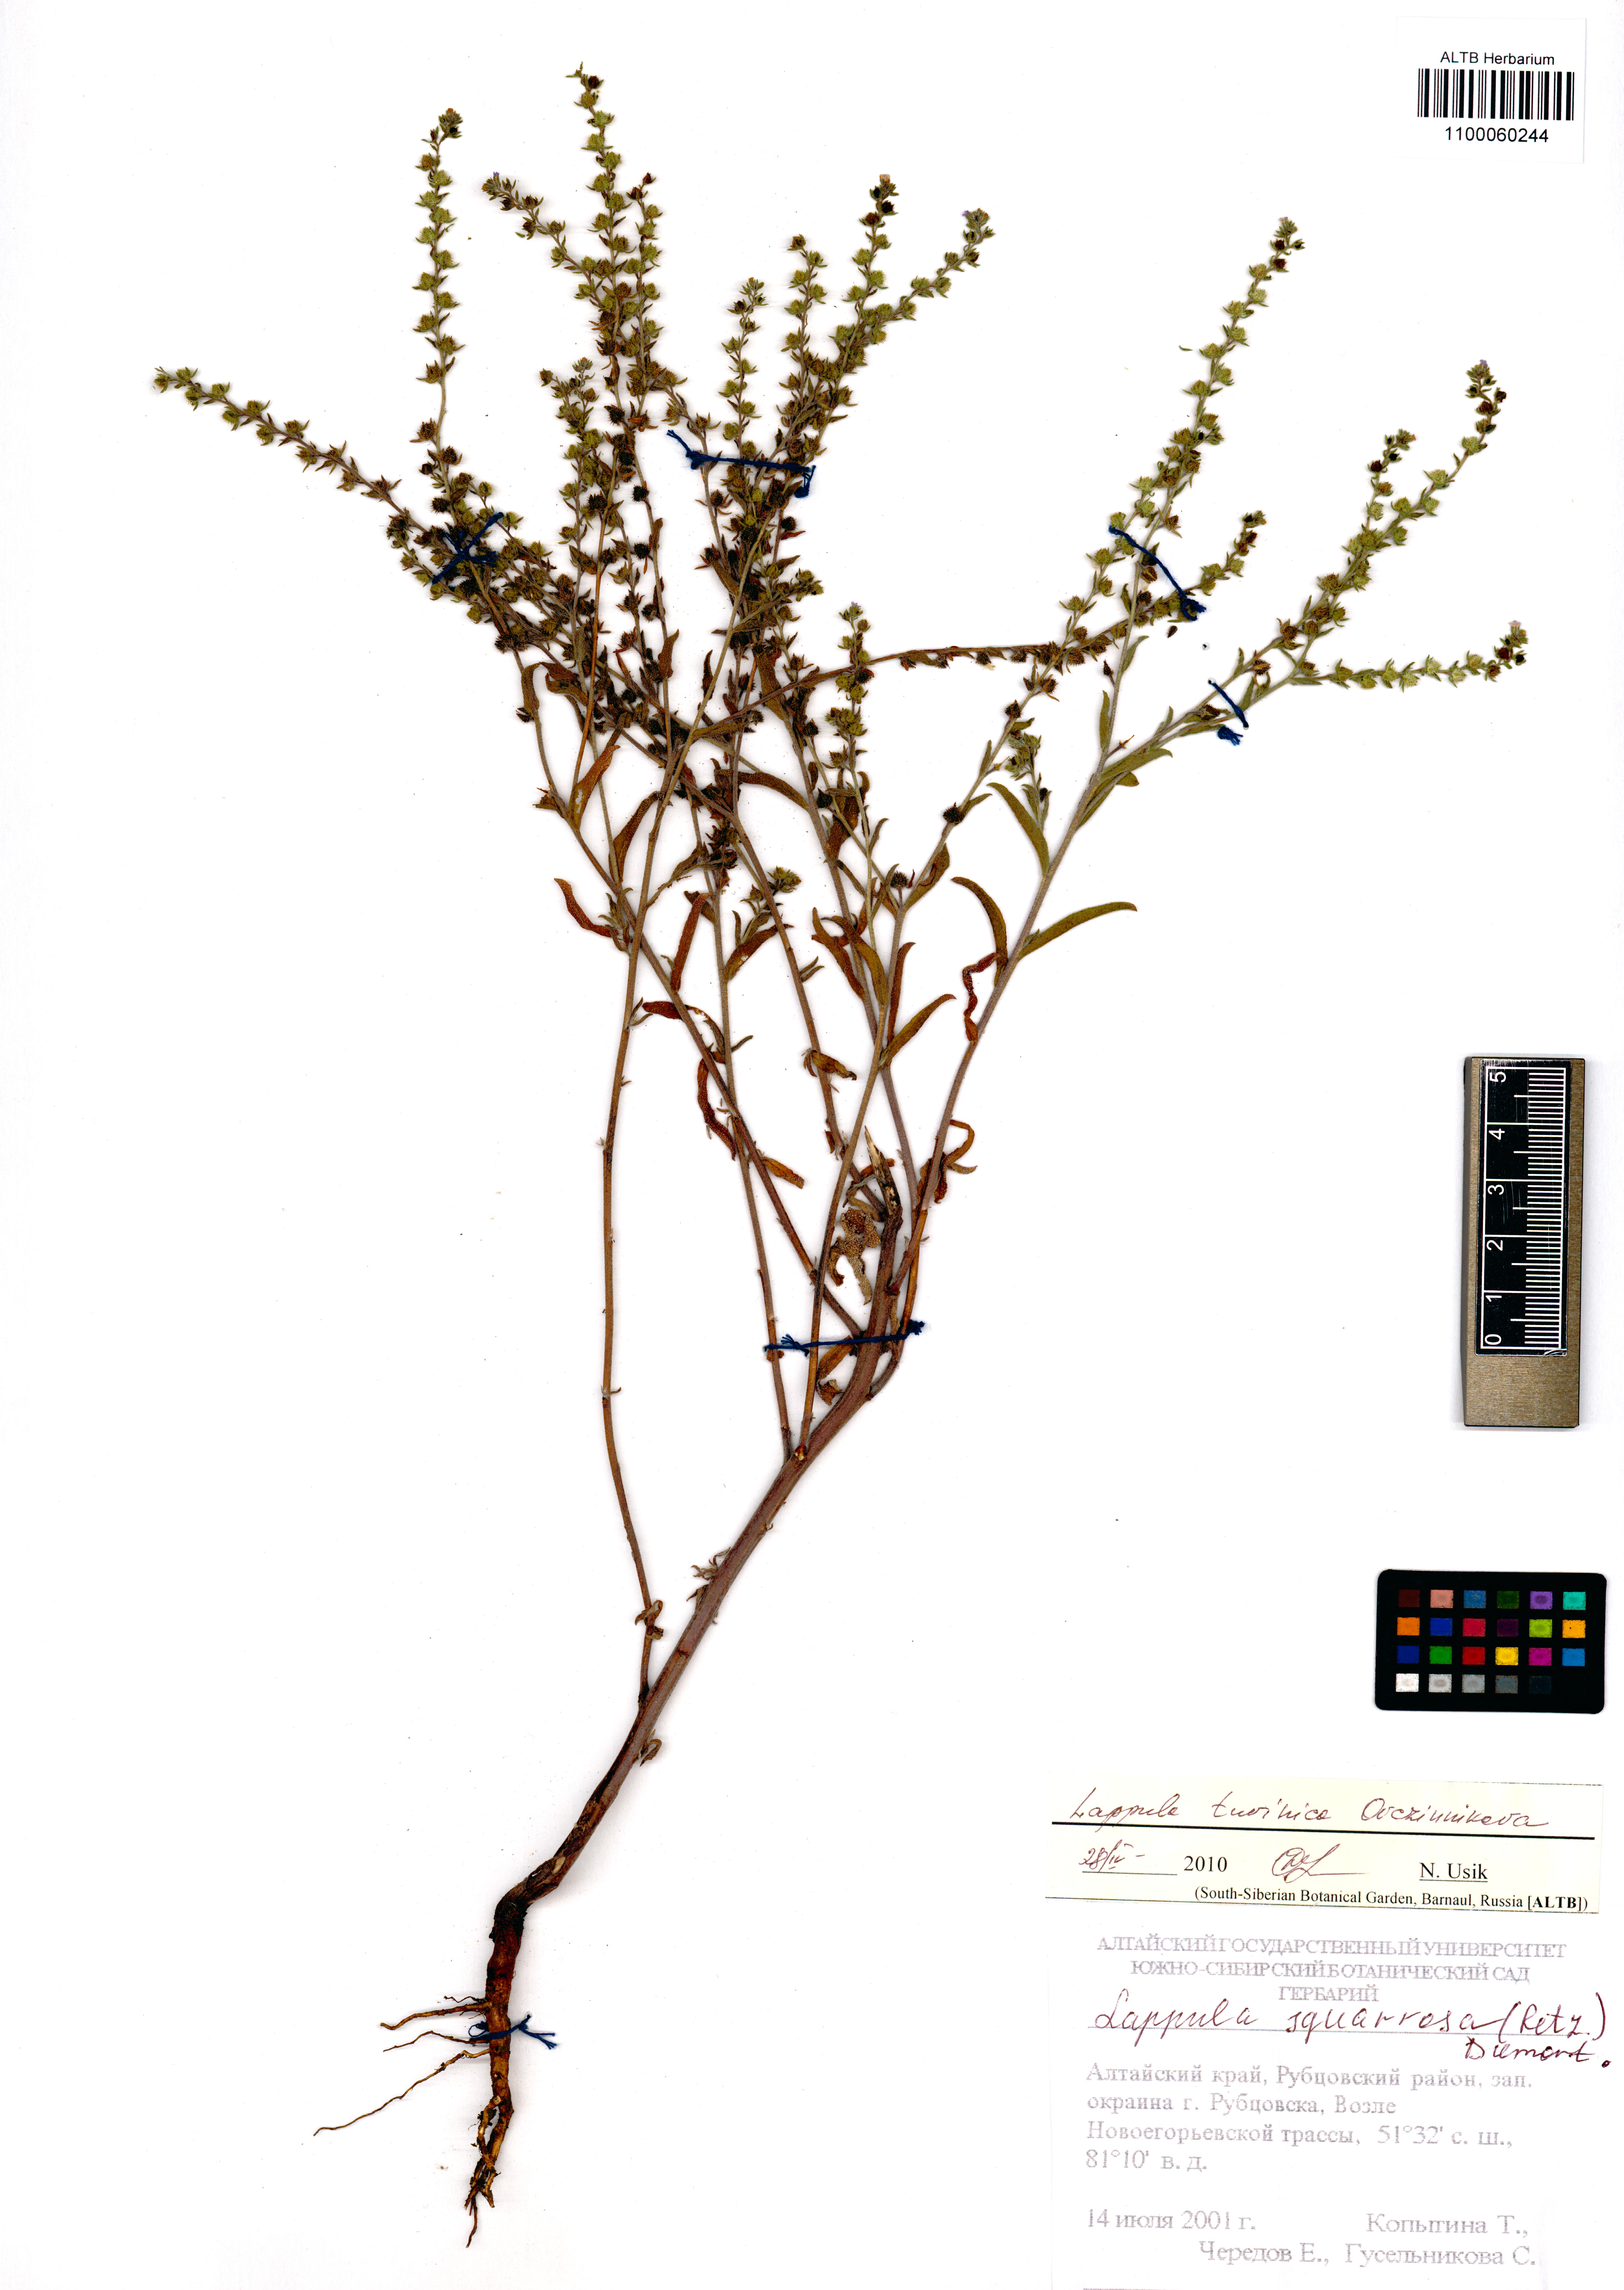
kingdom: Plantae
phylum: Tracheophyta
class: Magnoliopsida
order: Boraginales
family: Boraginaceae
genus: Lappula
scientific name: Lappula tuvinica
